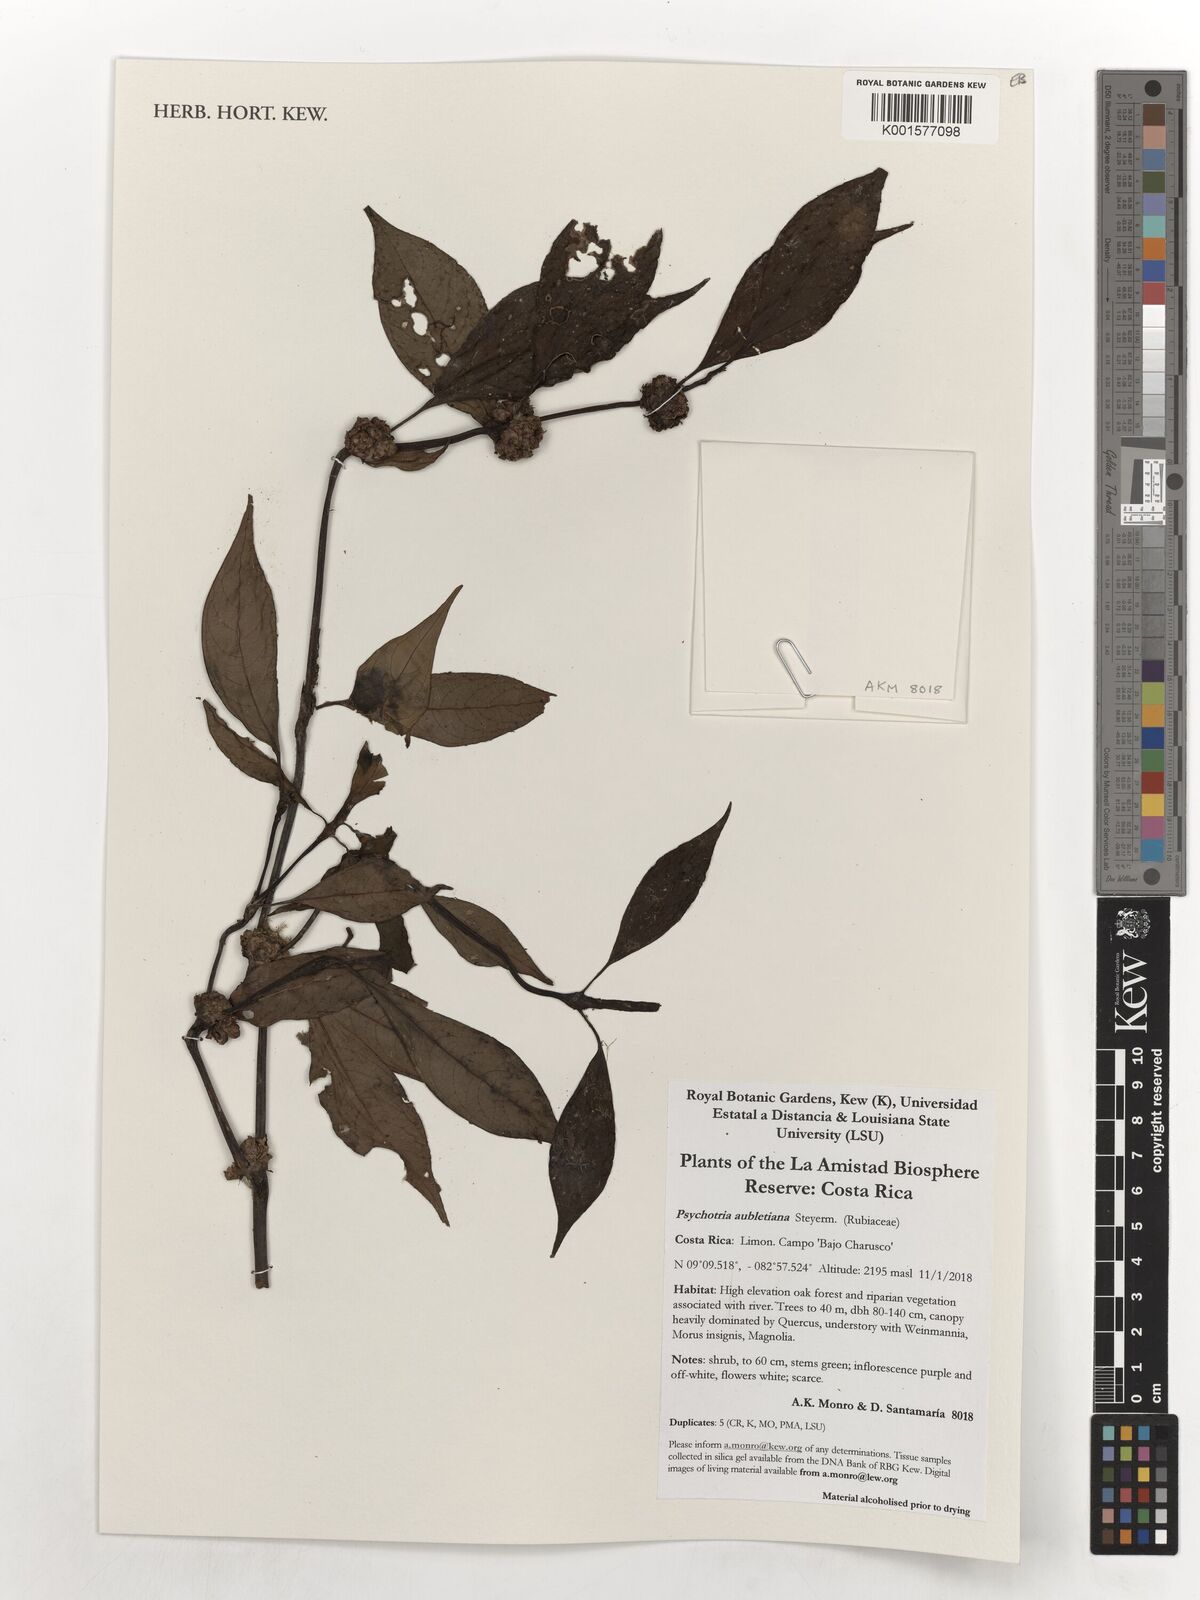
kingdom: Plantae
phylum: Tracheophyta
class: Magnoliopsida
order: Gentianales
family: Rubiaceae
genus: Palicourea
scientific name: Palicourea axillaris
